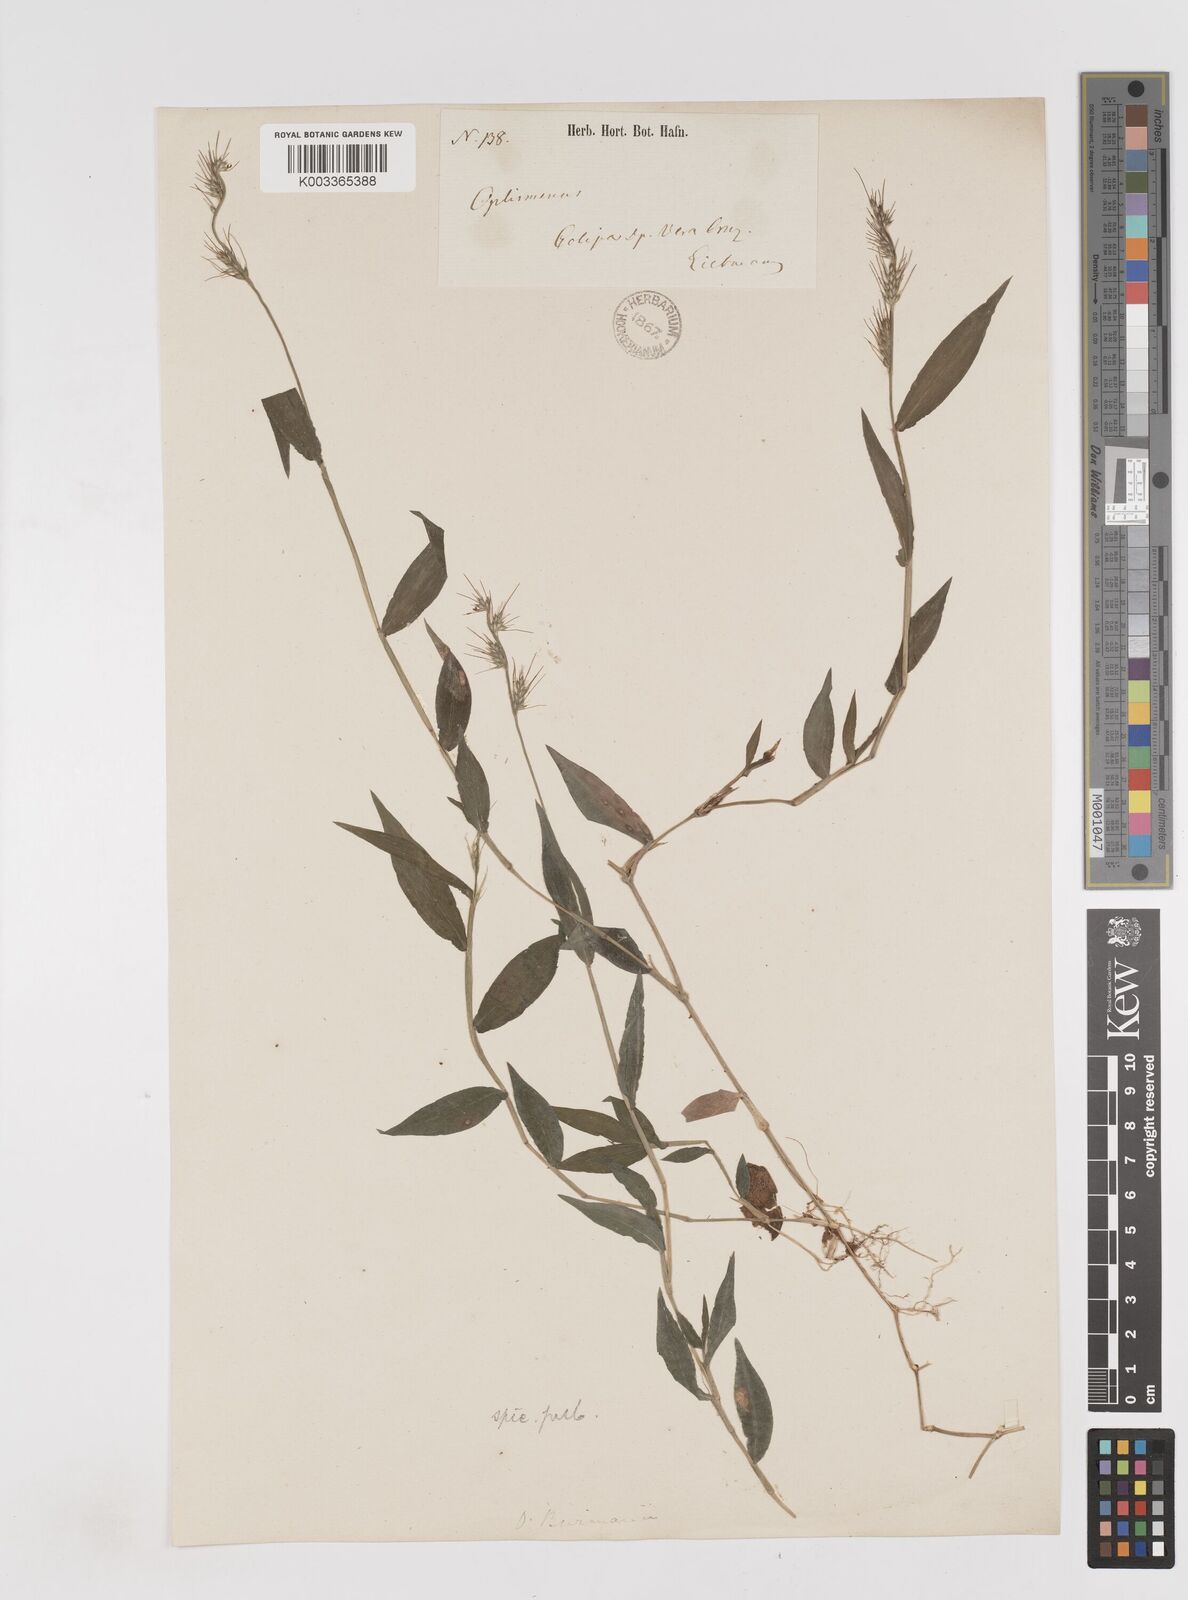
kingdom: Plantae
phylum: Tracheophyta
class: Liliopsida
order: Poales
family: Poaceae
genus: Oplismenus
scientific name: Oplismenus hirtellus
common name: Basketgrass
